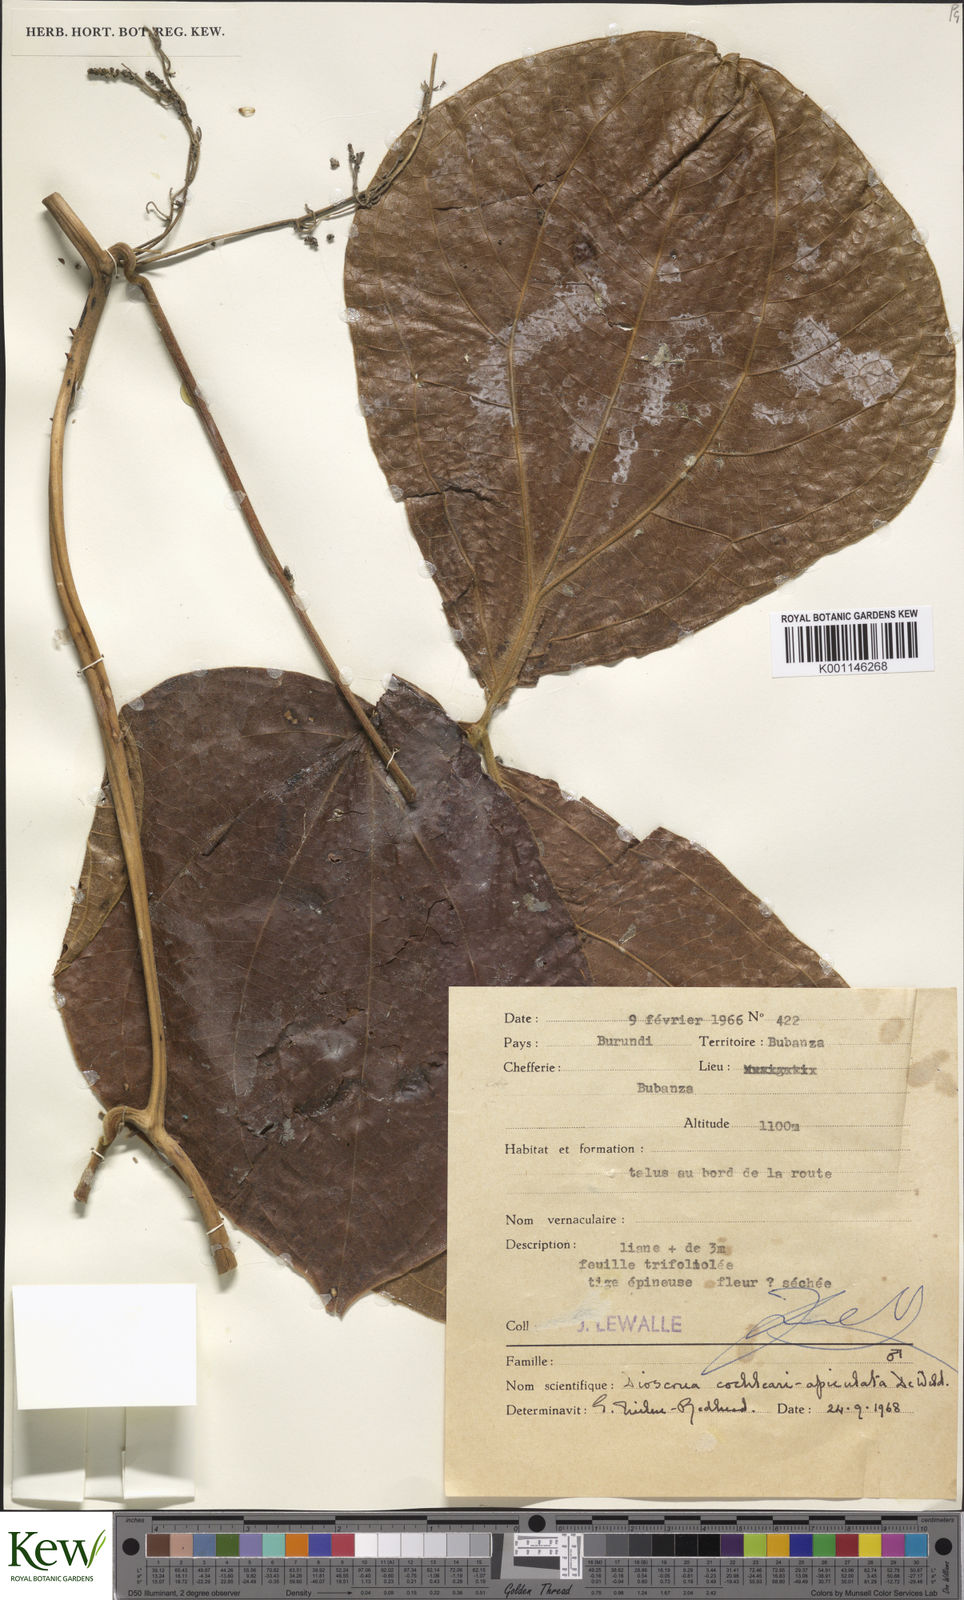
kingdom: Plantae
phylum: Tracheophyta
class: Liliopsida
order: Dioscoreales
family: Dioscoreaceae
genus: Dioscorea
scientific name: Dioscorea cochleariapiculata
